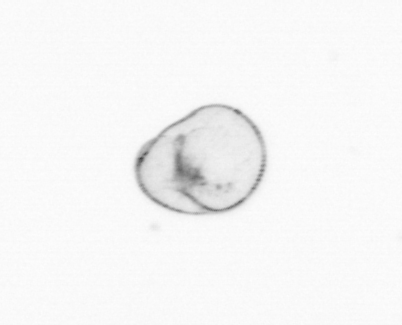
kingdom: Chromista
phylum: Myzozoa
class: Dinophyceae
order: Noctilucales
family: Noctilucaceae
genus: Noctiluca
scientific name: Noctiluca scintillans
